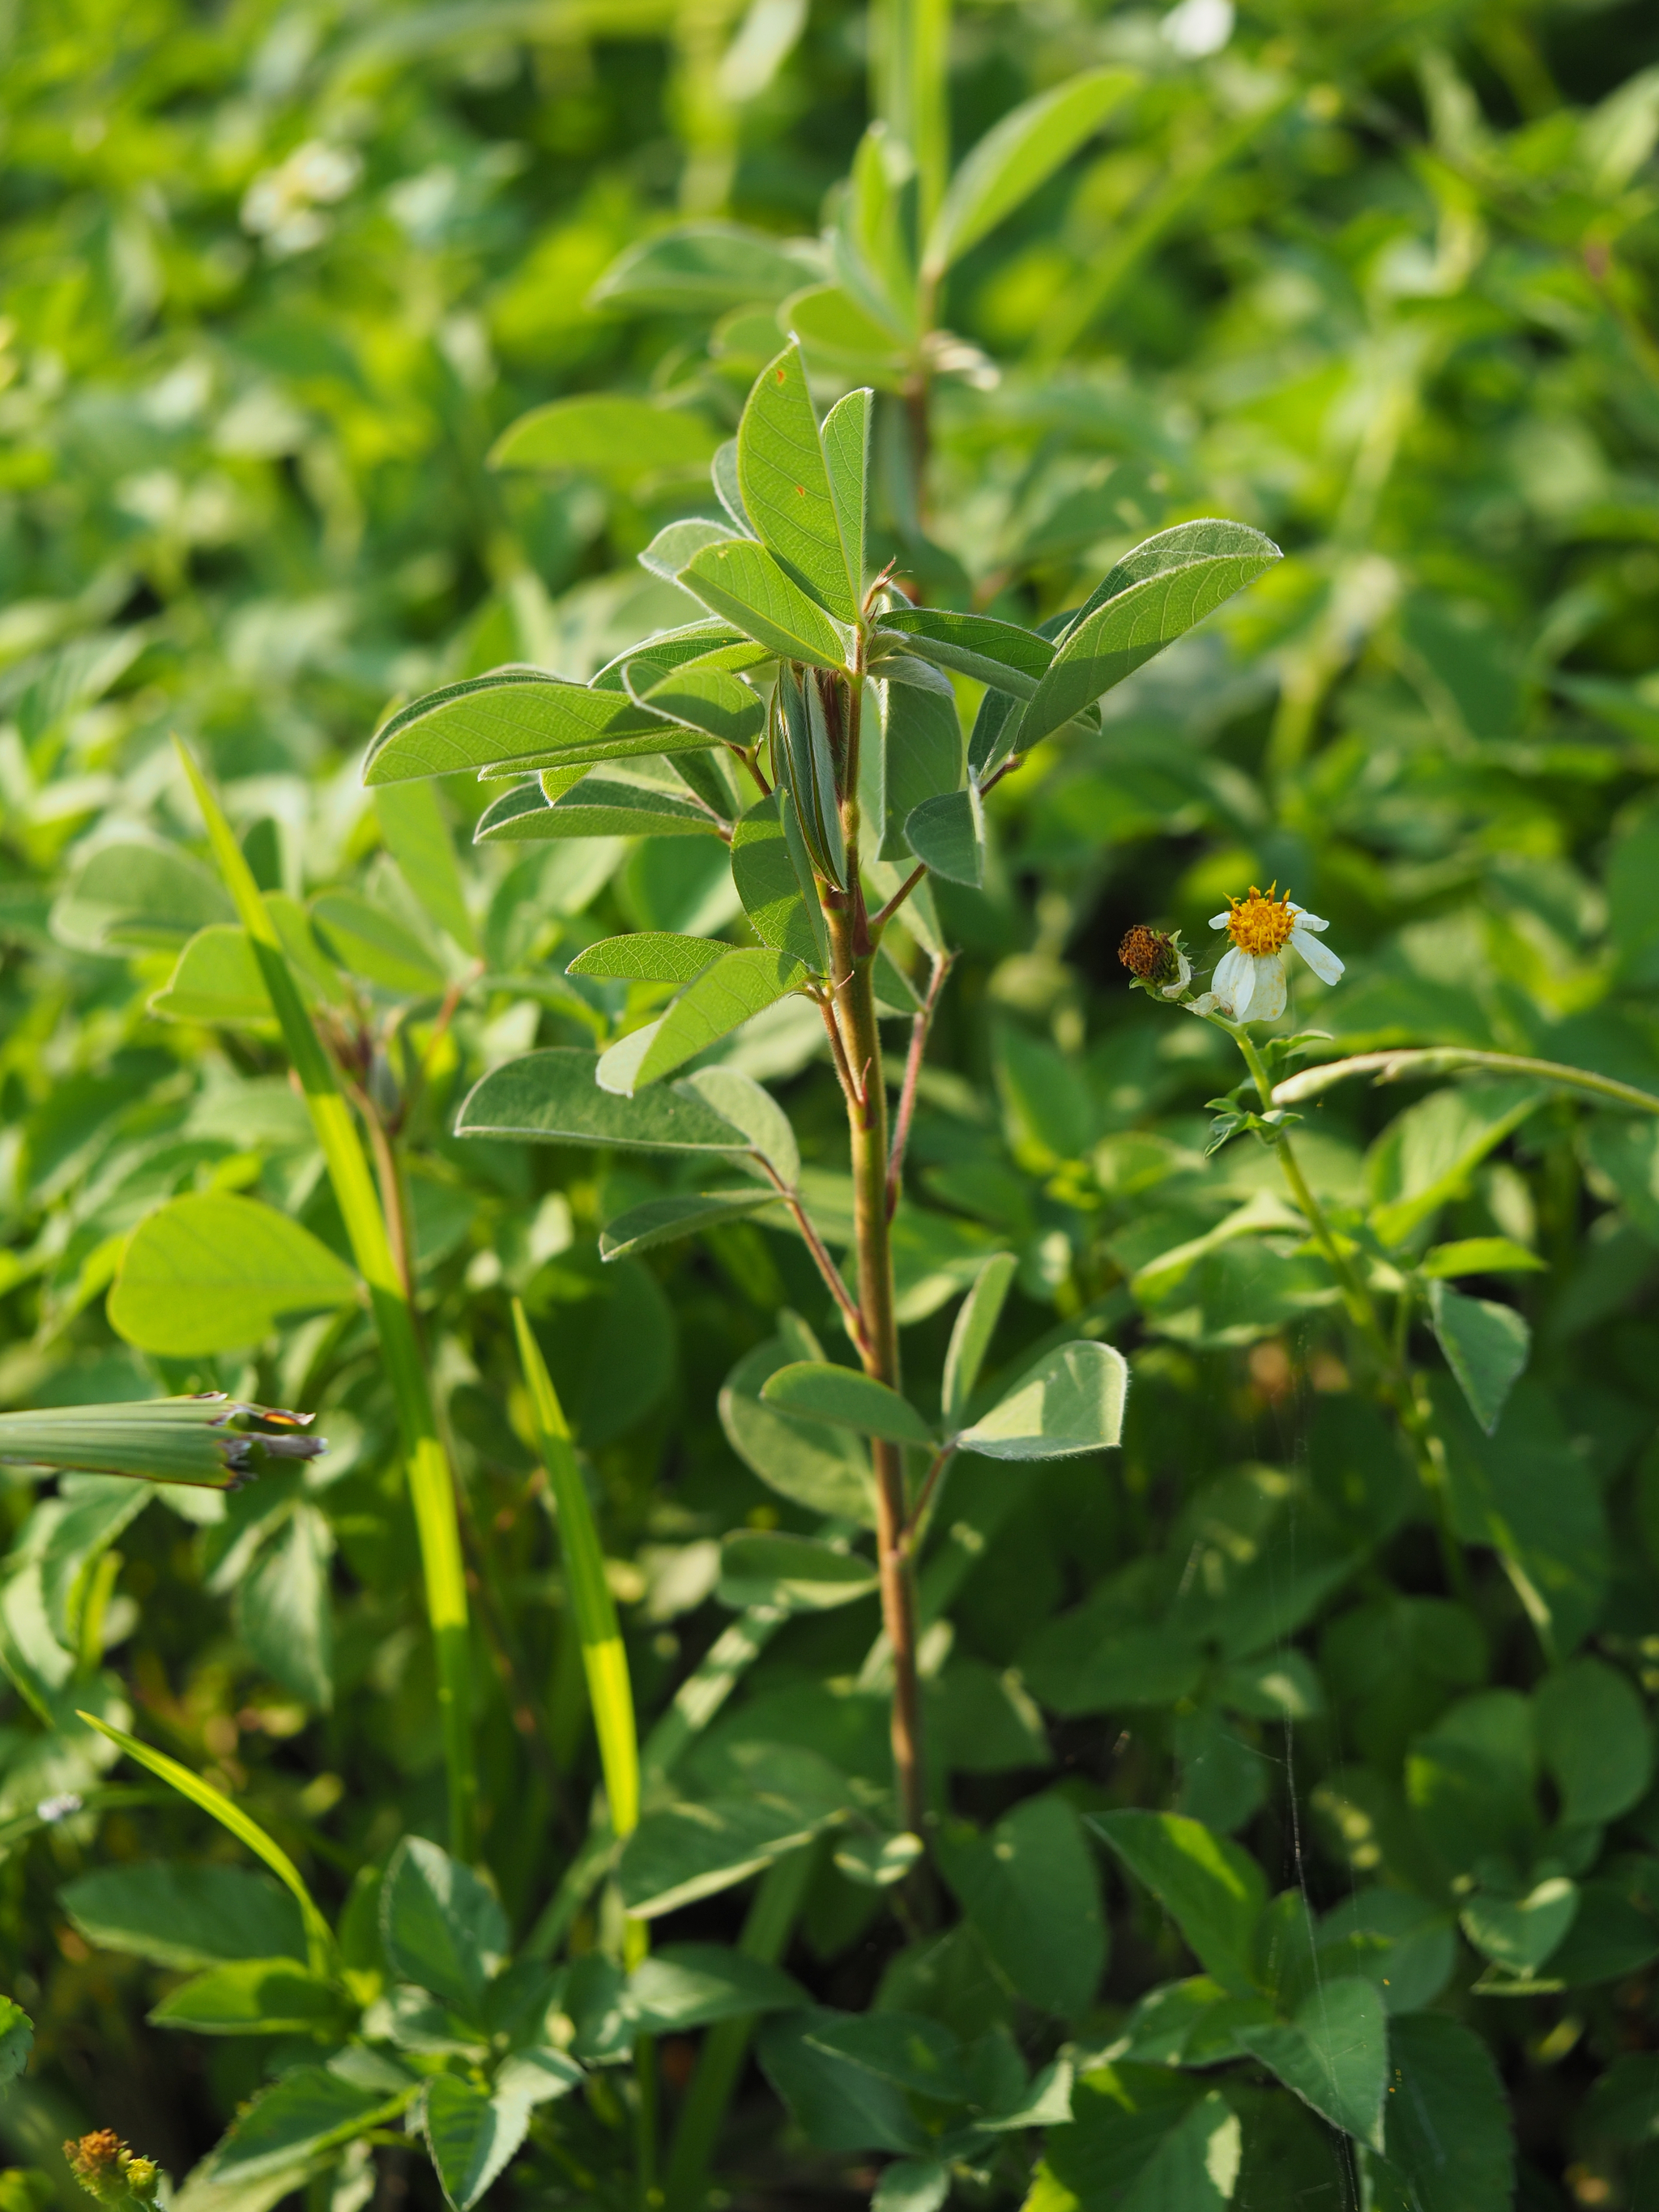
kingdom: Plantae
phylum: Tracheophyta
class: Magnoliopsida
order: Fabales
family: Fabaceae
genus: Grona
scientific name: Grona heterocarpos
